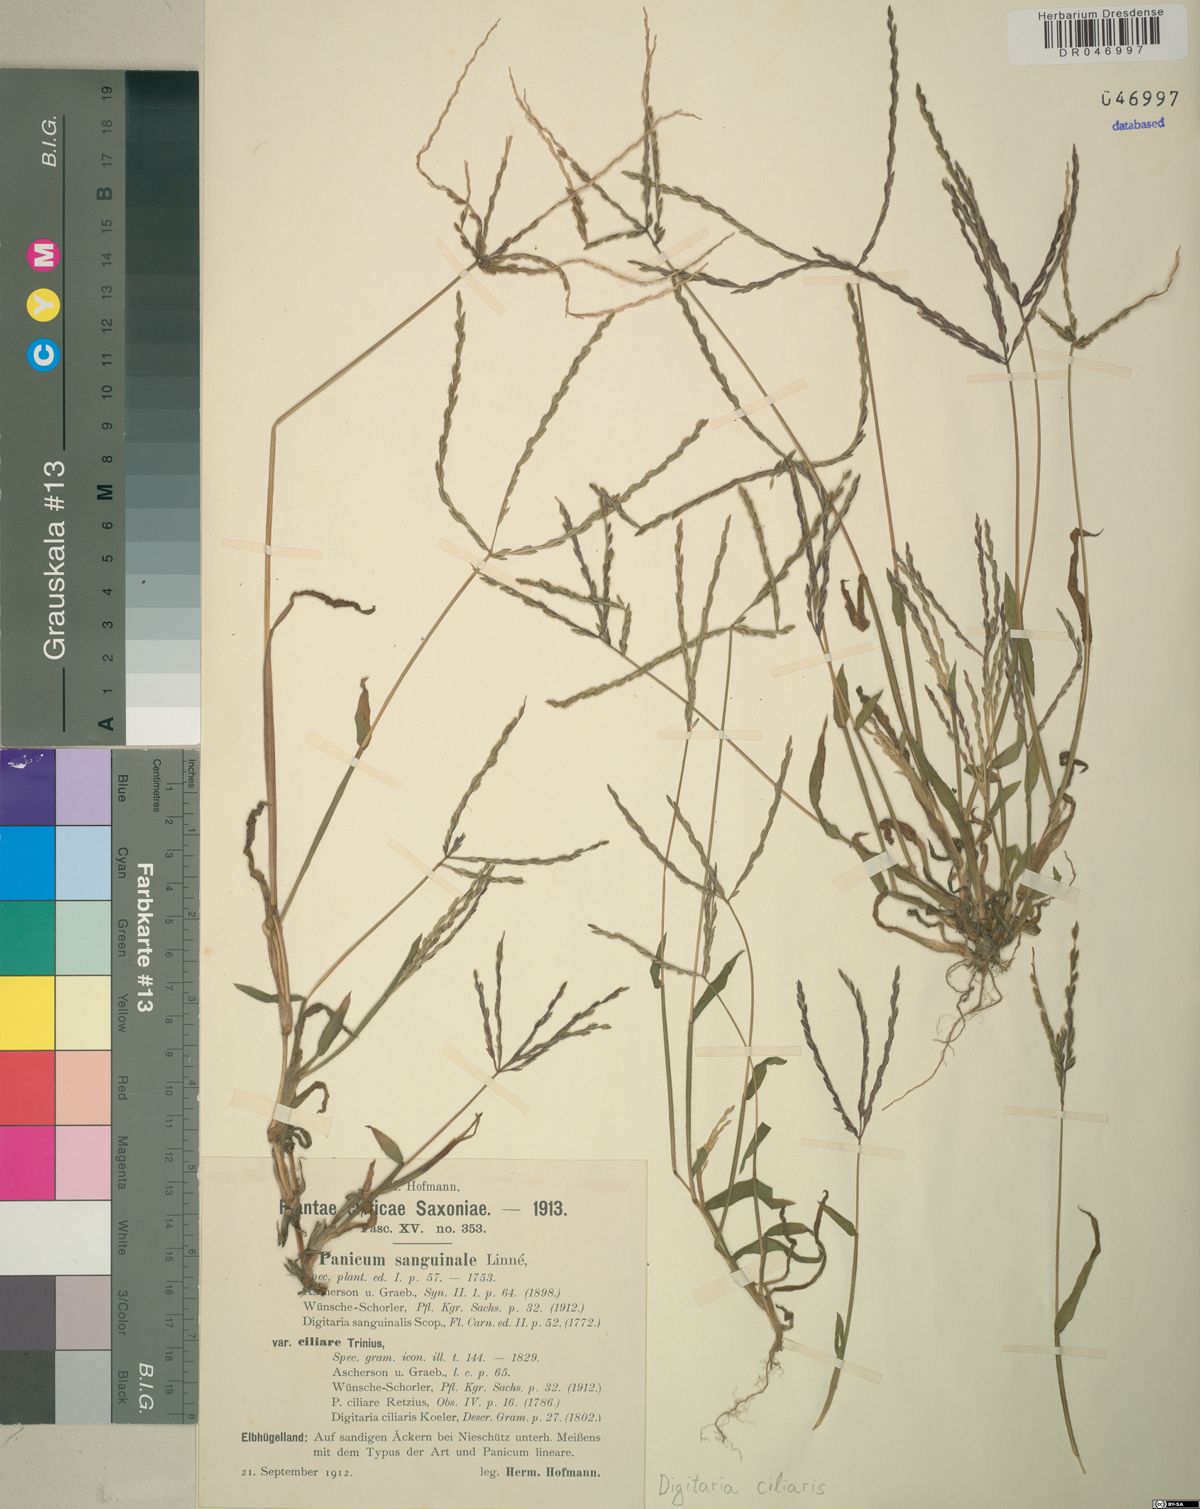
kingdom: Plantae
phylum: Tracheophyta
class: Liliopsida
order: Poales
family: Poaceae
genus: Digitaria
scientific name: Digitaria ciliaris
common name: Tropical finger-grass
